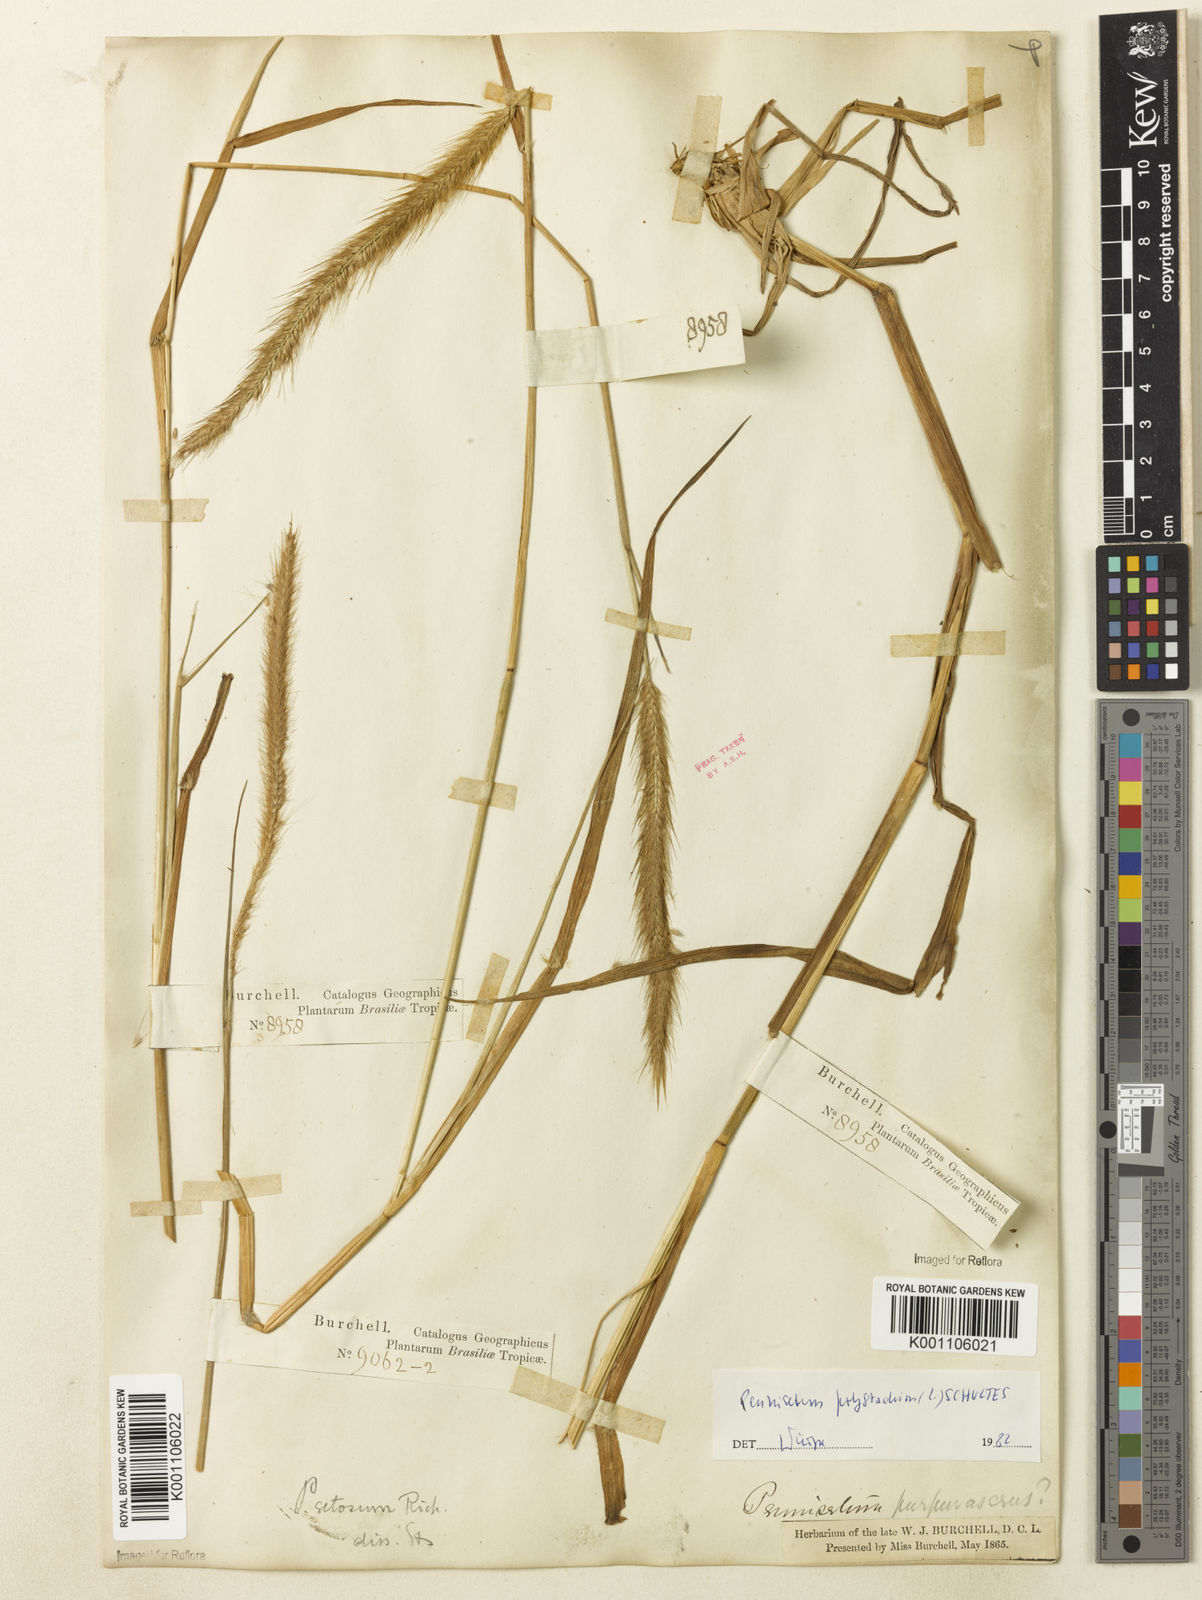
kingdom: Plantae
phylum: Tracheophyta
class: Liliopsida
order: Poales
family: Poaceae
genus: Setaria
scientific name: Setaria parviflora
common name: Knotroot bristle-grass
